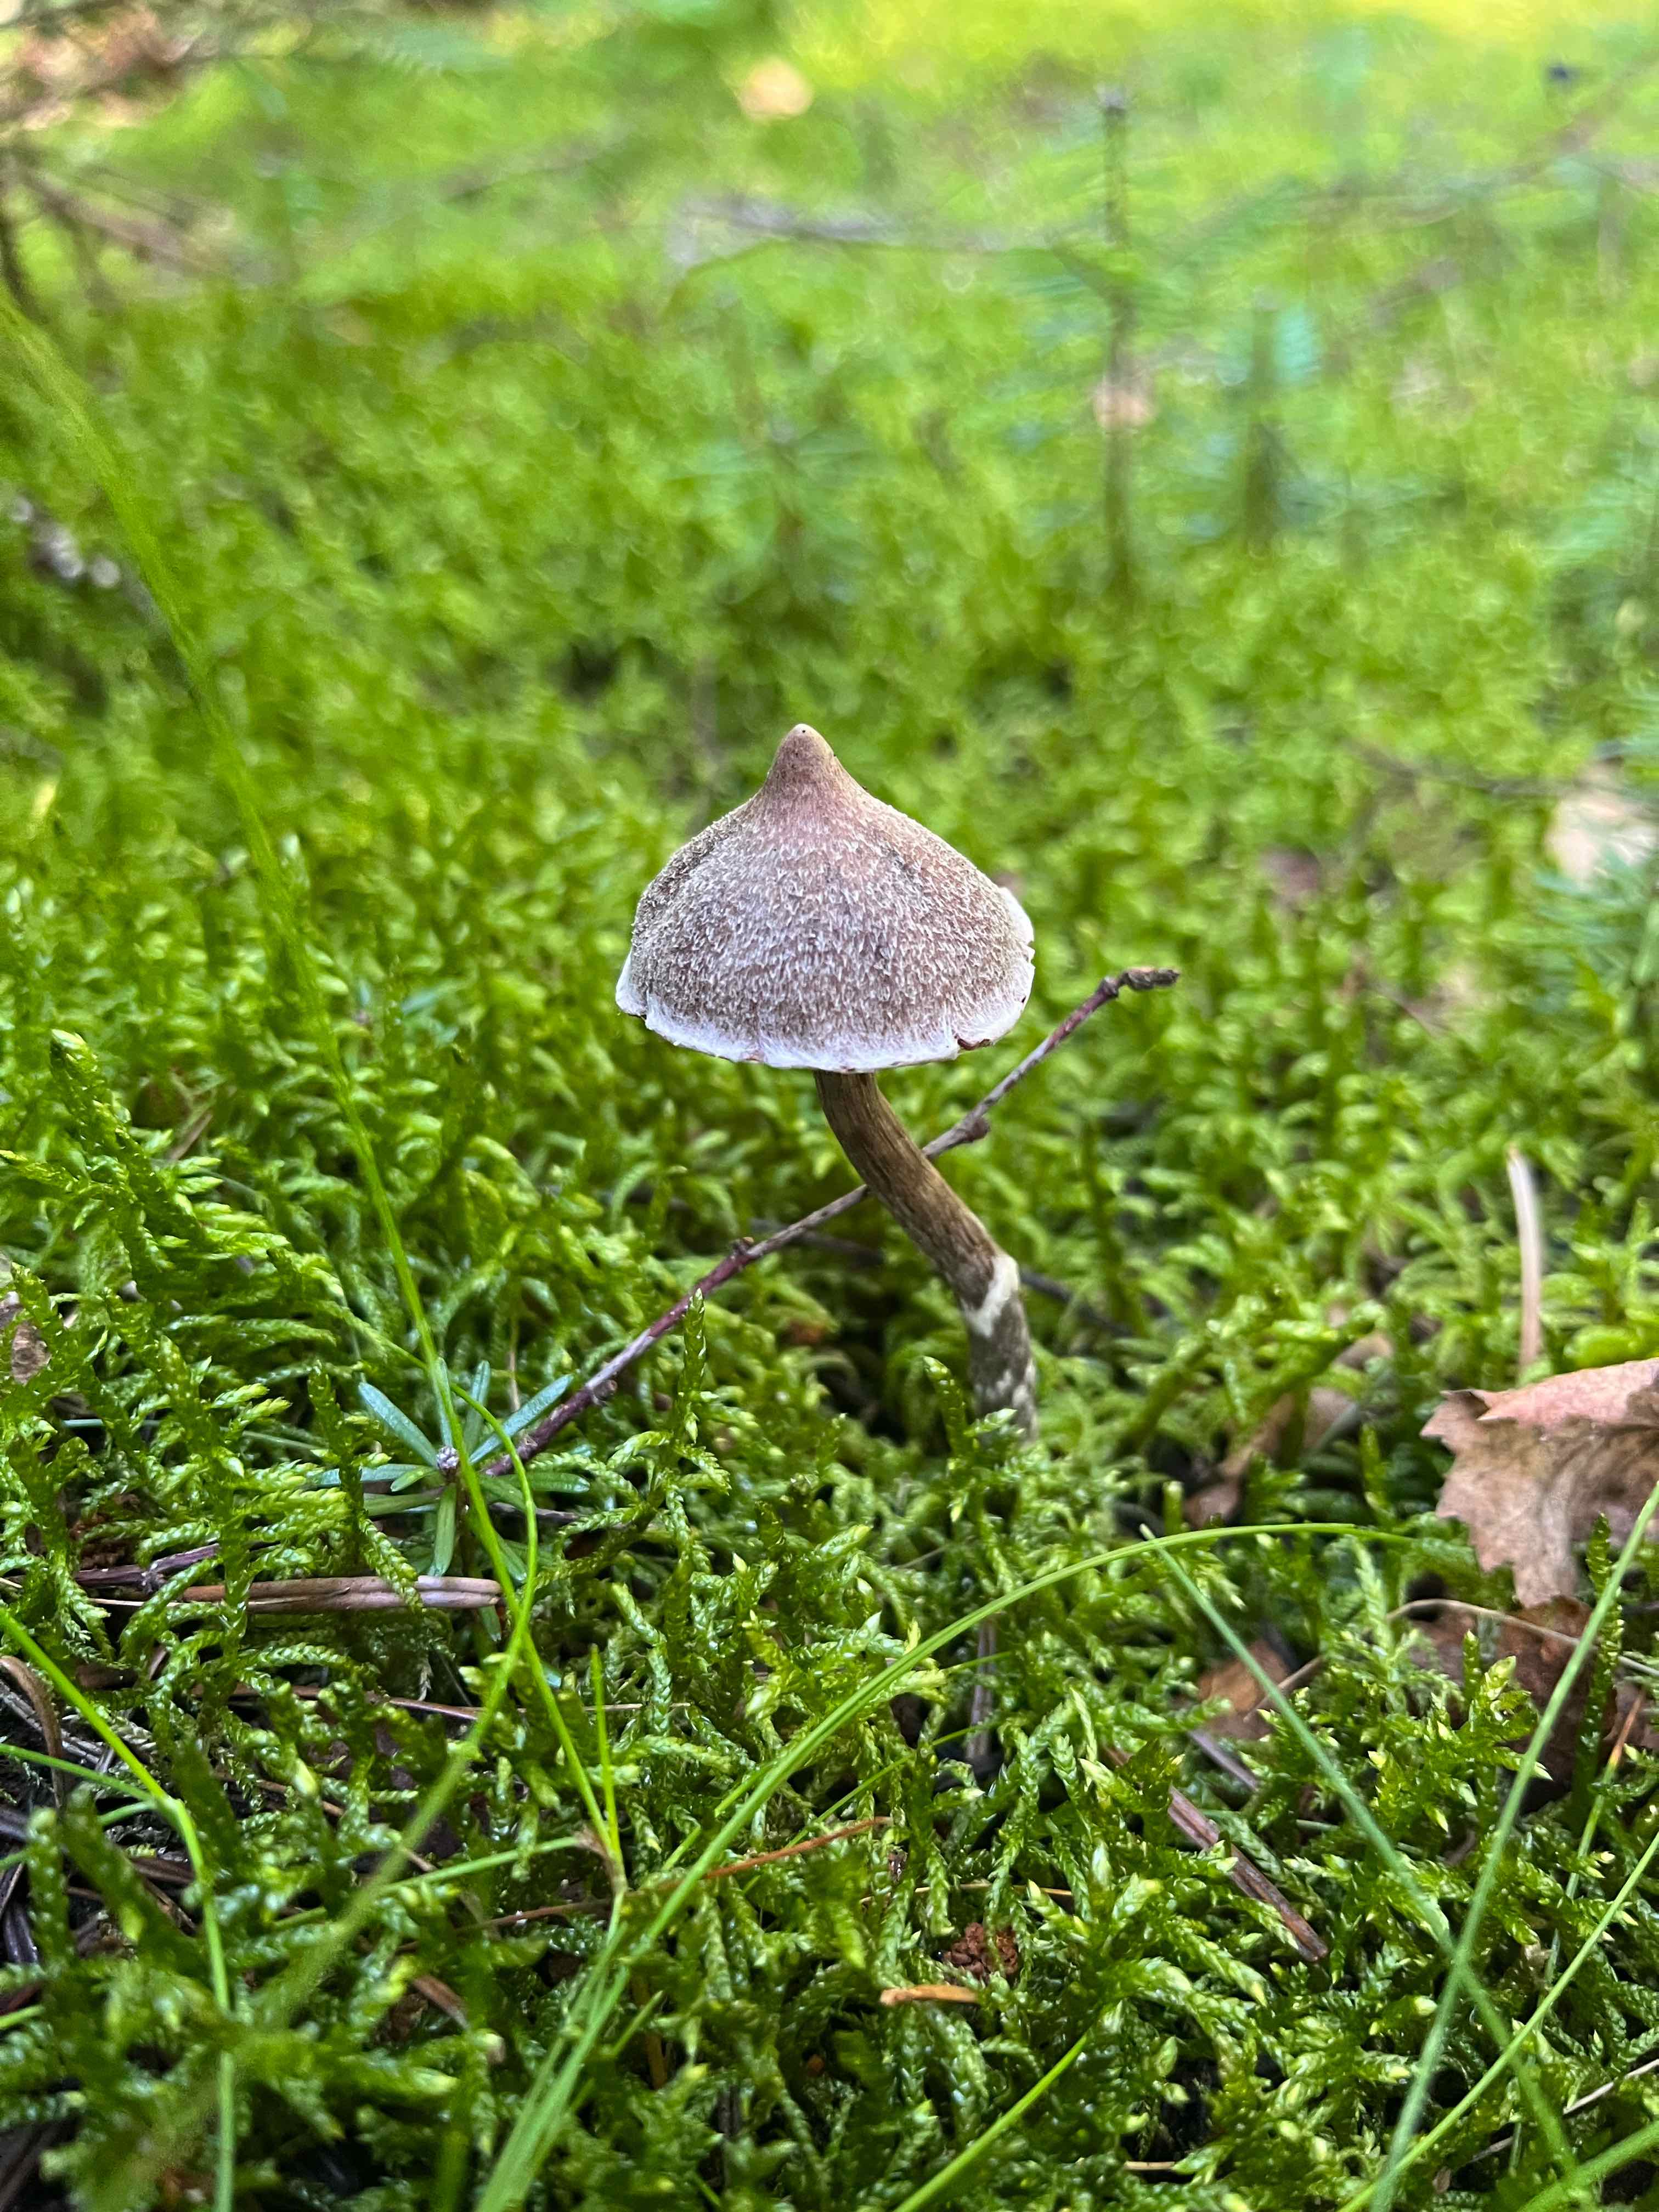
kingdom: Fungi
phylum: Basidiomycota
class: Agaricomycetes
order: Agaricales
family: Cortinariaceae
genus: Cortinarius
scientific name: Cortinarius
